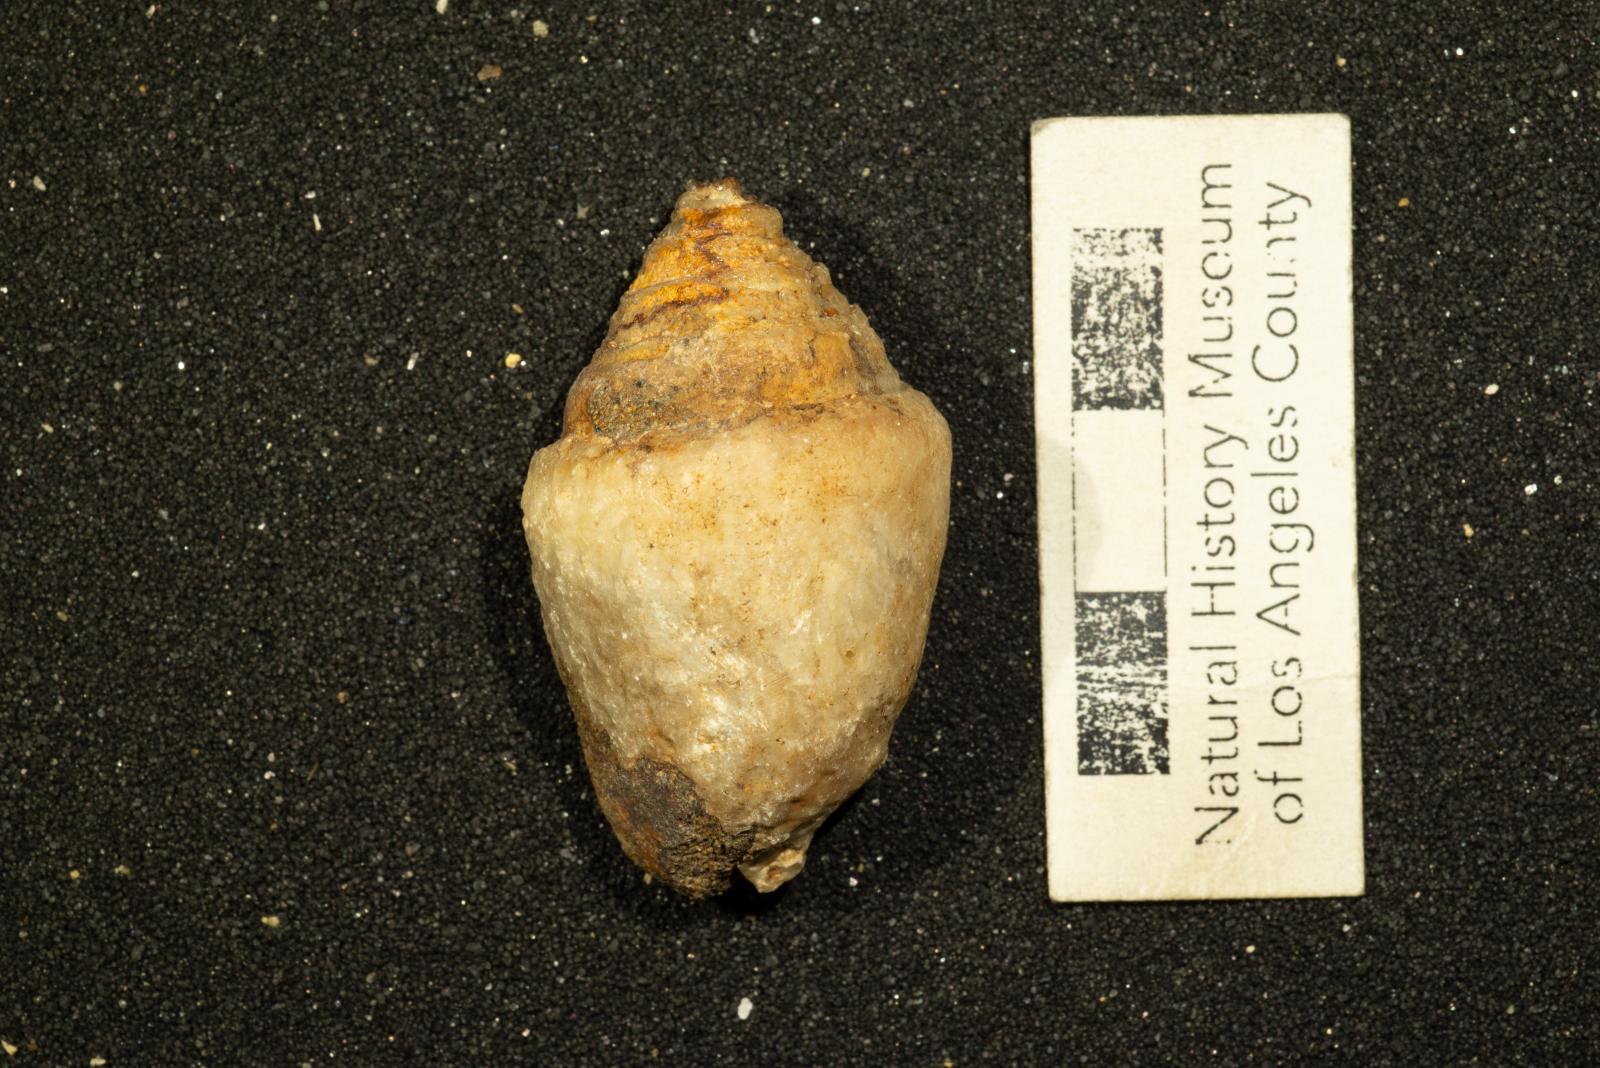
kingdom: Animalia
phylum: Mollusca
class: Gastropoda
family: Acteonellidae
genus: Trochactaeon
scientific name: Trochactaeon frazierensis
